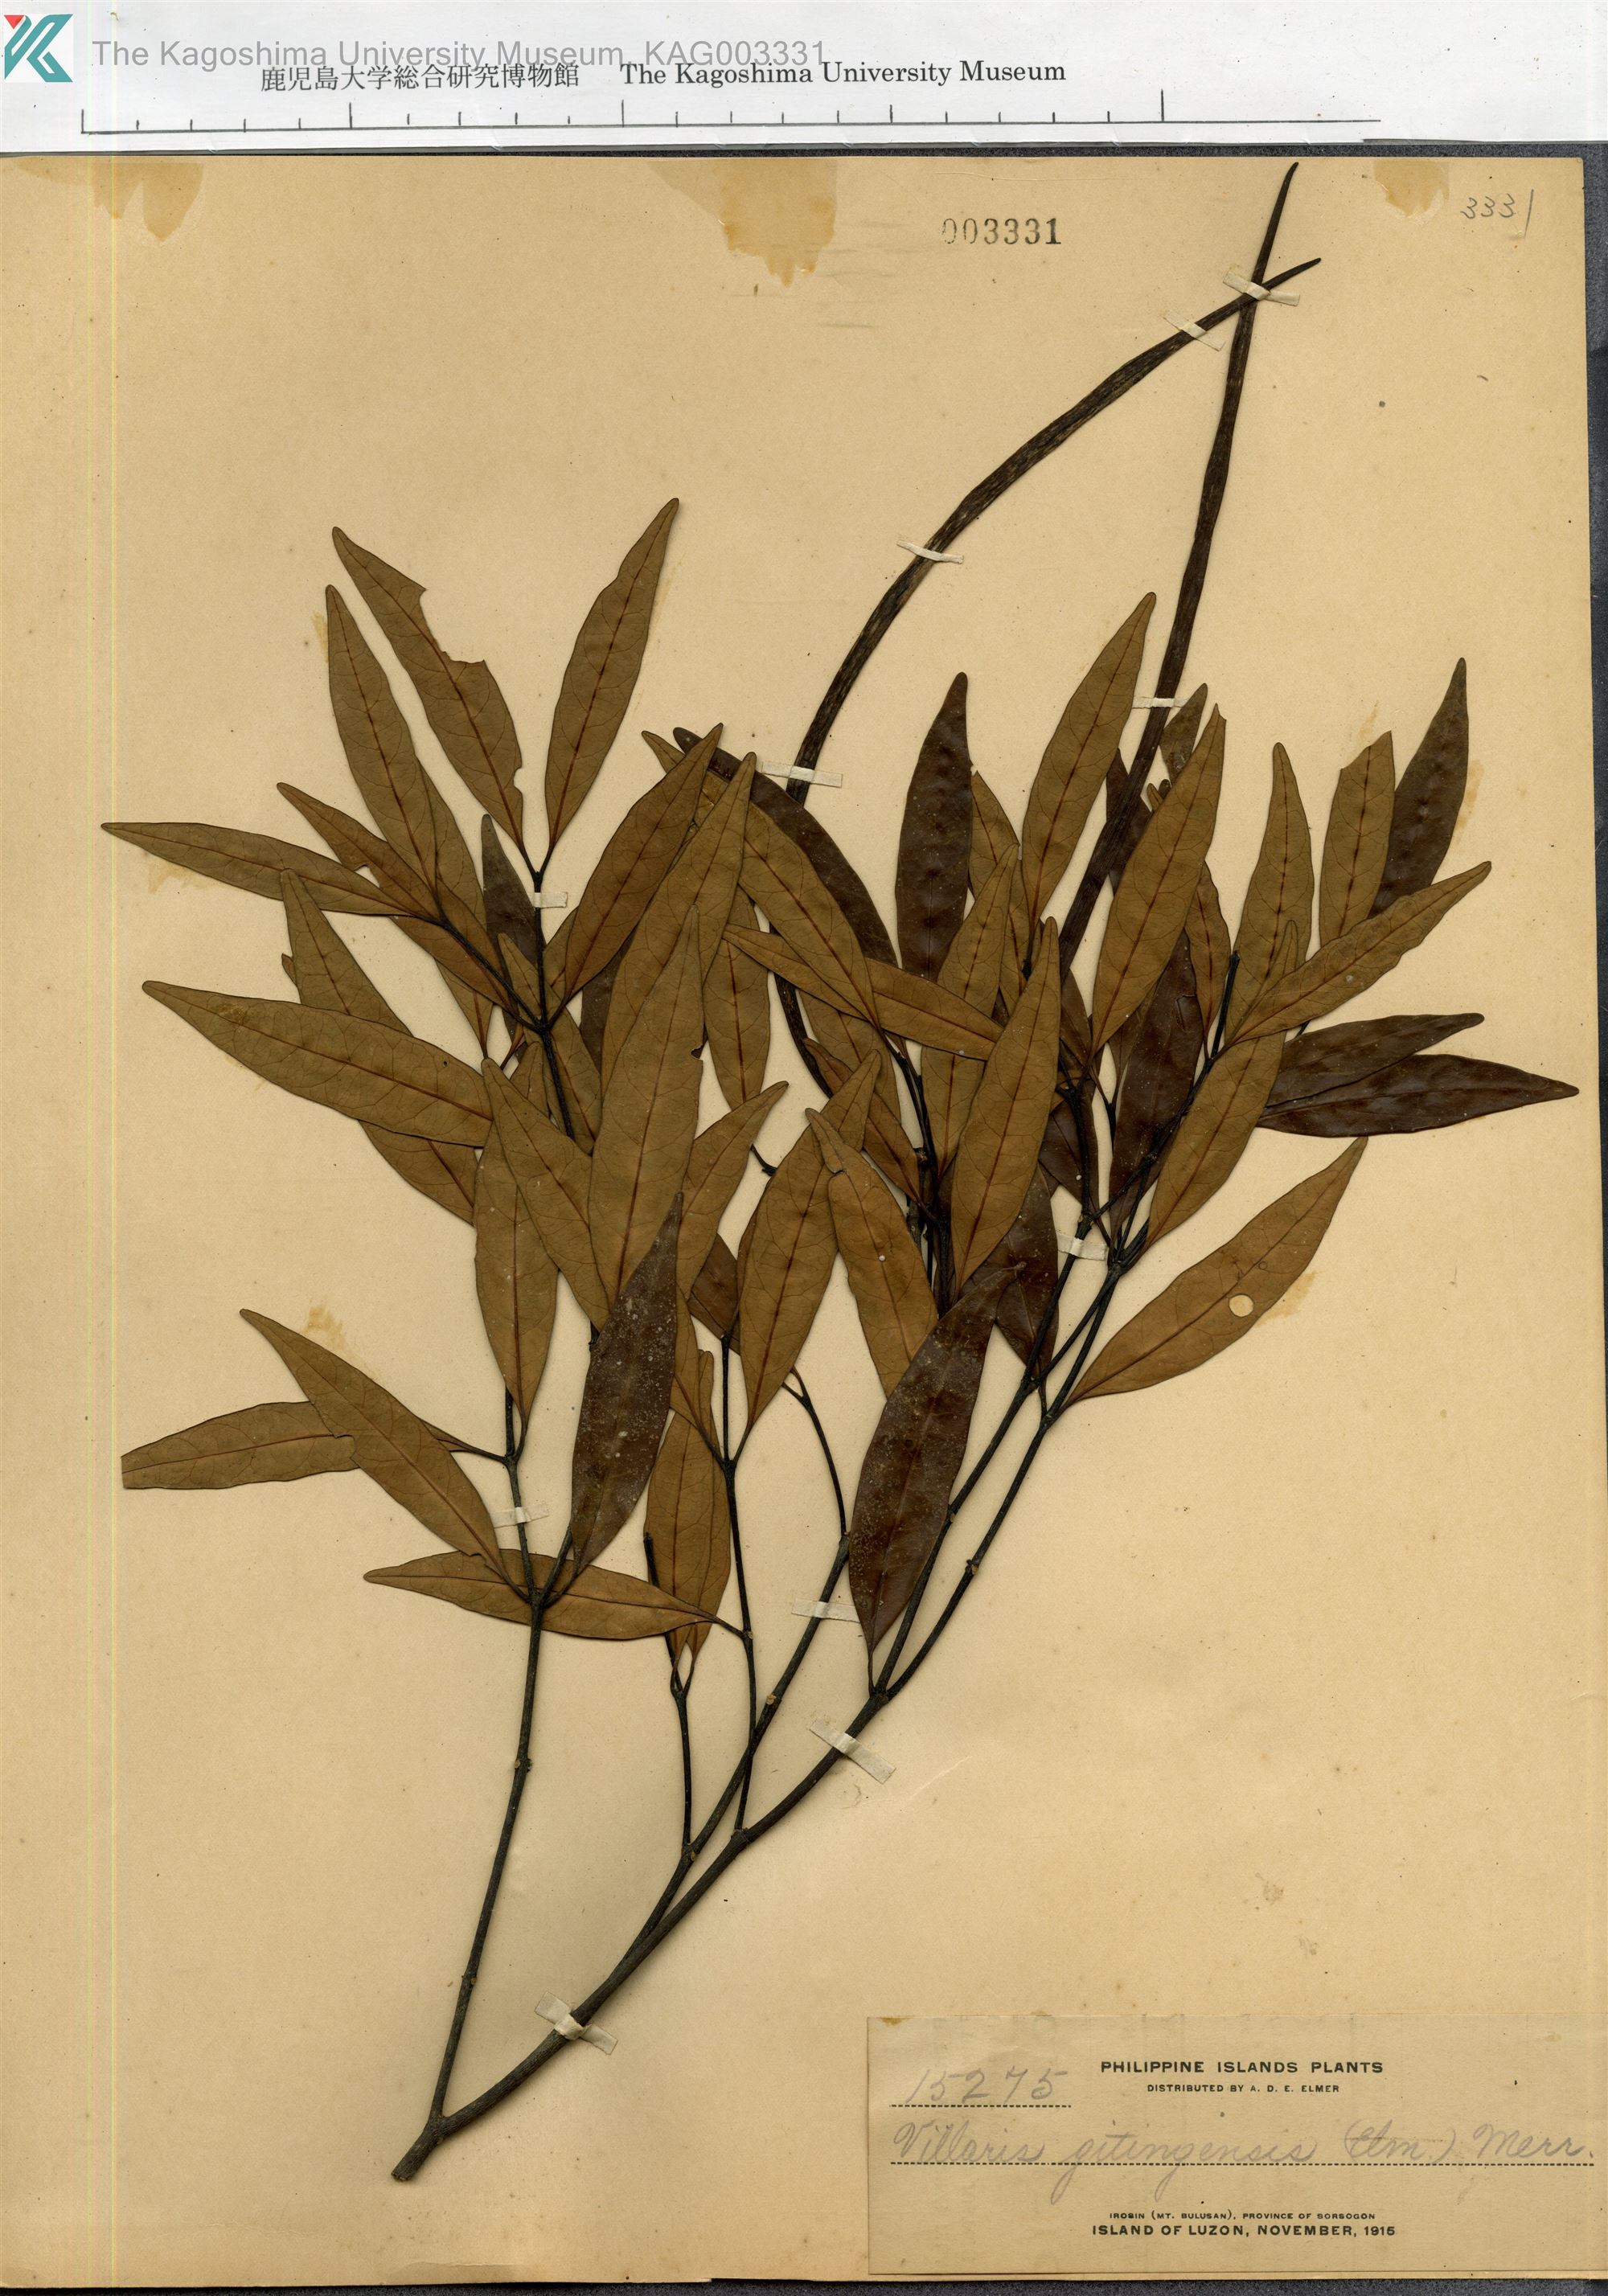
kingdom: Plantae
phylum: Tracheophyta
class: Magnoliopsida
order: Gentianales
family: Apocynaceae
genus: Kibatalia
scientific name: Kibatalia gitingensis
